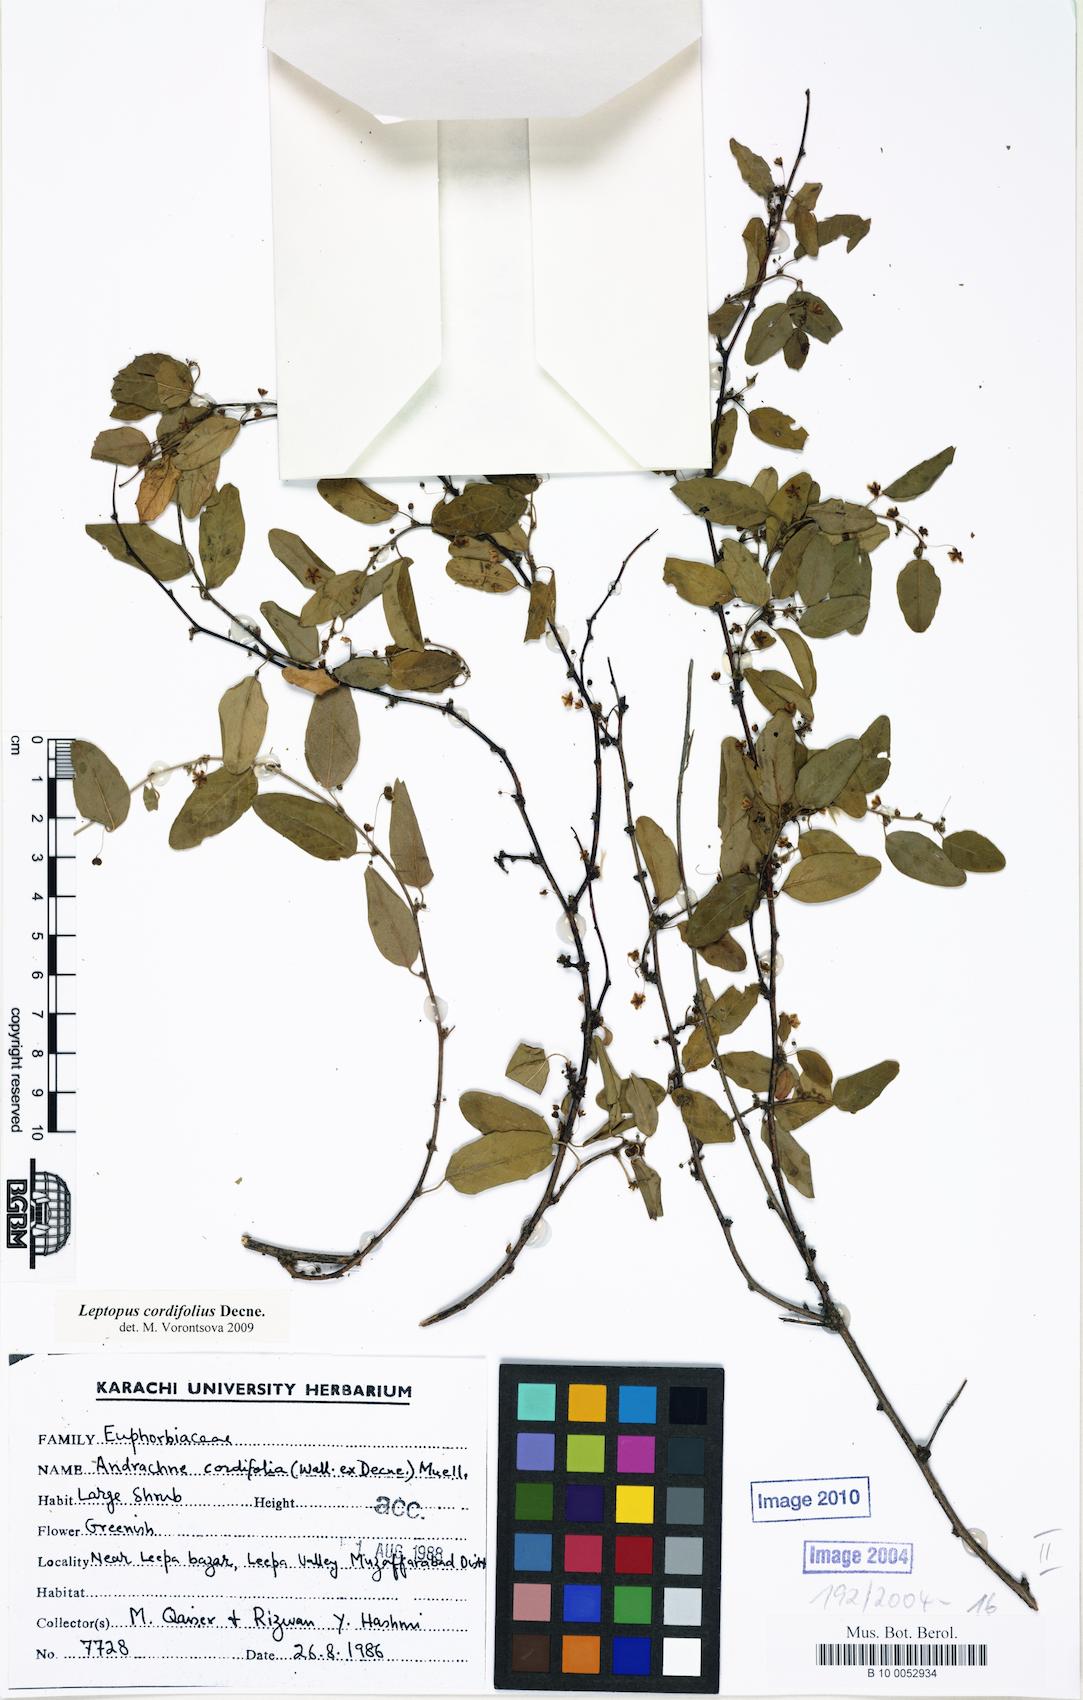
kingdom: Plantae
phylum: Tracheophyta
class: Magnoliopsida
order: Malpighiales
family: Phyllanthaceae
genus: Leptopus
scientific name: Leptopus cordifolius
